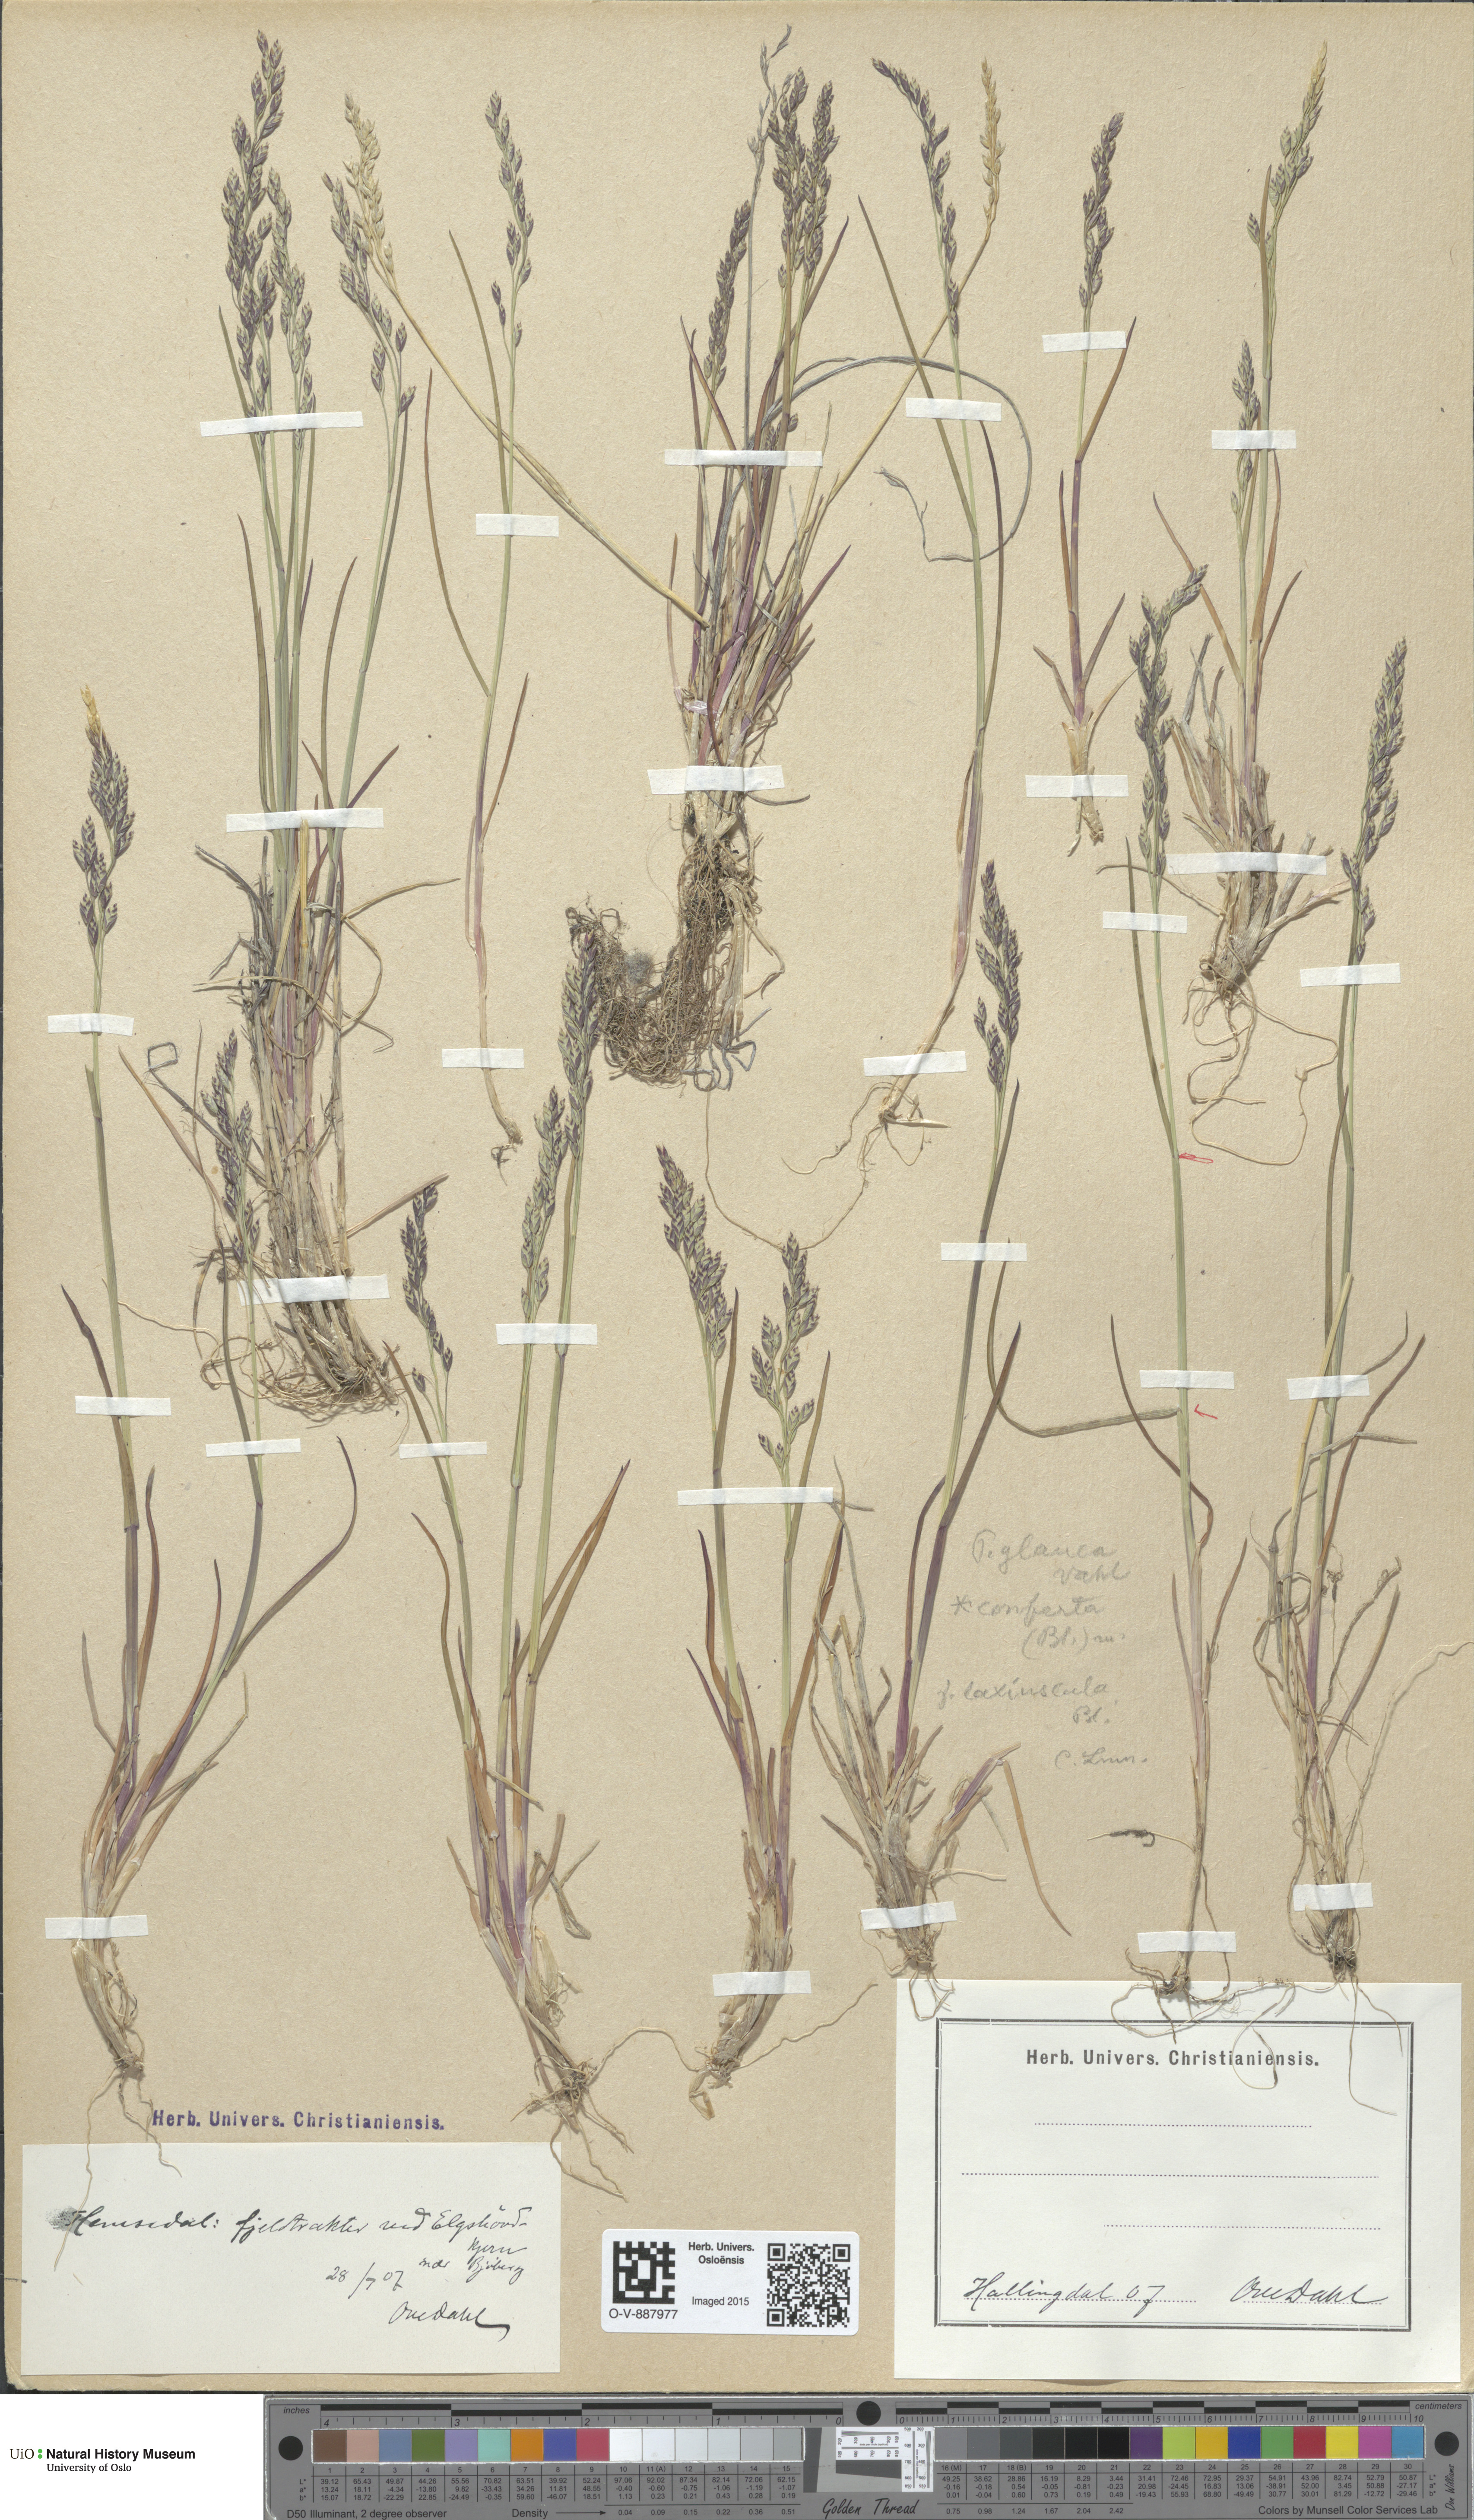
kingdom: Plantae
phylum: Tracheophyta
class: Liliopsida
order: Poales
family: Poaceae
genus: Poa
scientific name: Poa glauca
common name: Glaucous bluegrass
